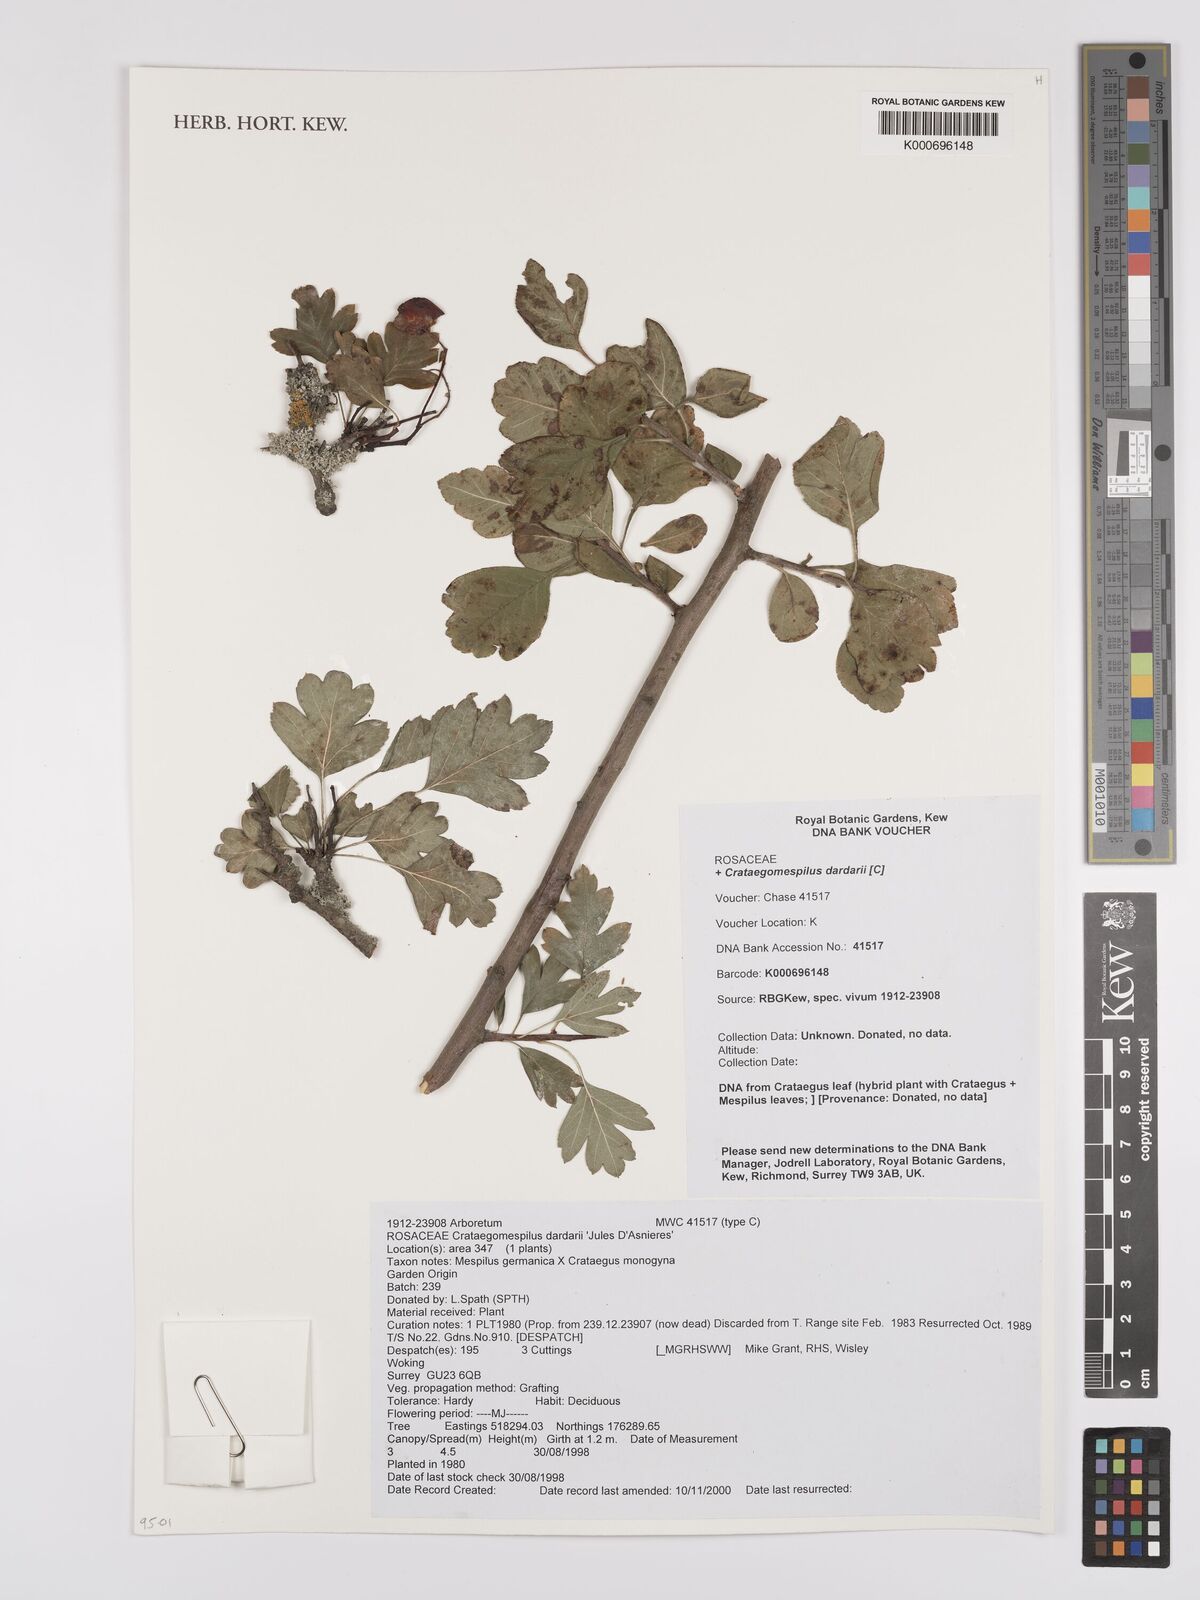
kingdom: Plantae
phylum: Tracheophyta
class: Magnoliopsida
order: Rosales
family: Rosaceae
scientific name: Rosaceae
